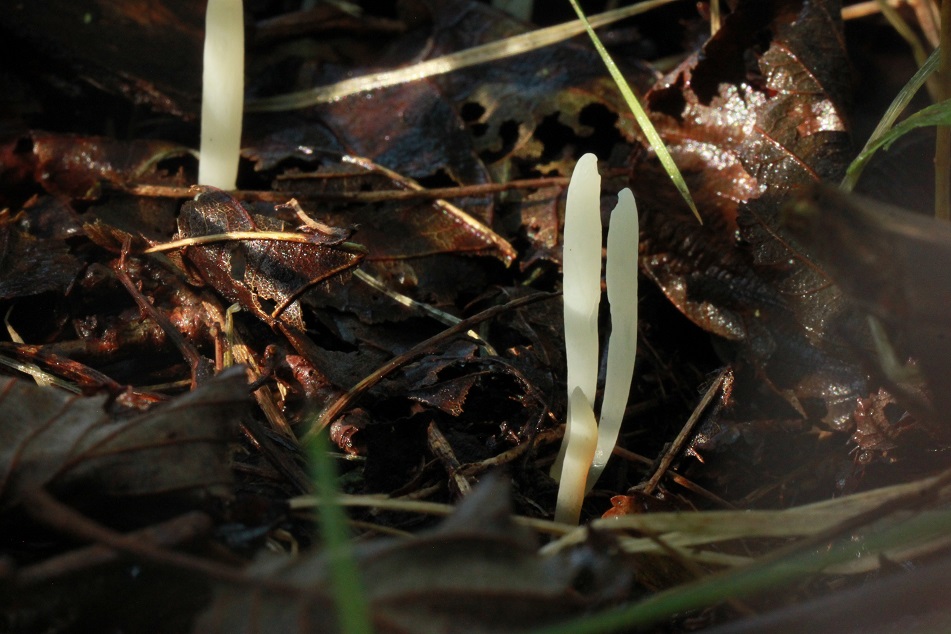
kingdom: Fungi
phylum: Basidiomycota
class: Agaricomycetes
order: Agaricales
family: Clavariaceae
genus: Clavaria
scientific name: Clavaria falcata
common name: hvid køllesvamp
